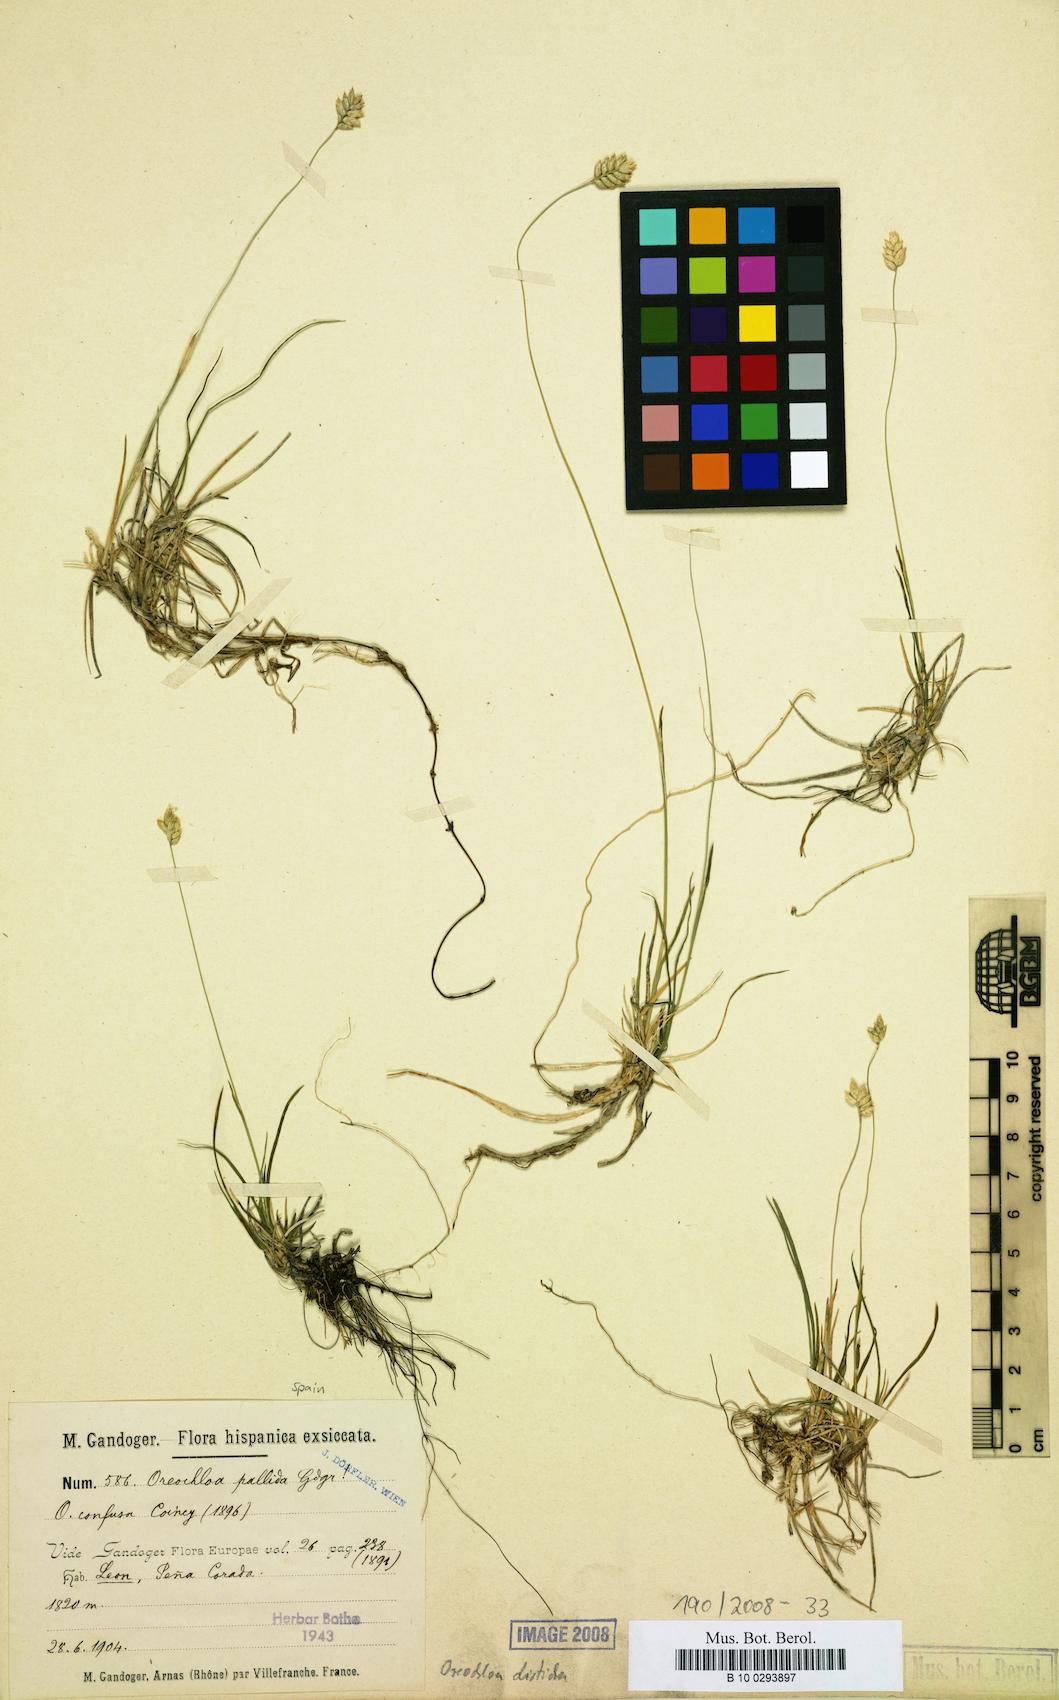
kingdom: Plantae
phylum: Tracheophyta
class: Liliopsida
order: Poales
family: Poaceae
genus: Oreochloa
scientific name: Oreochloa disticha
